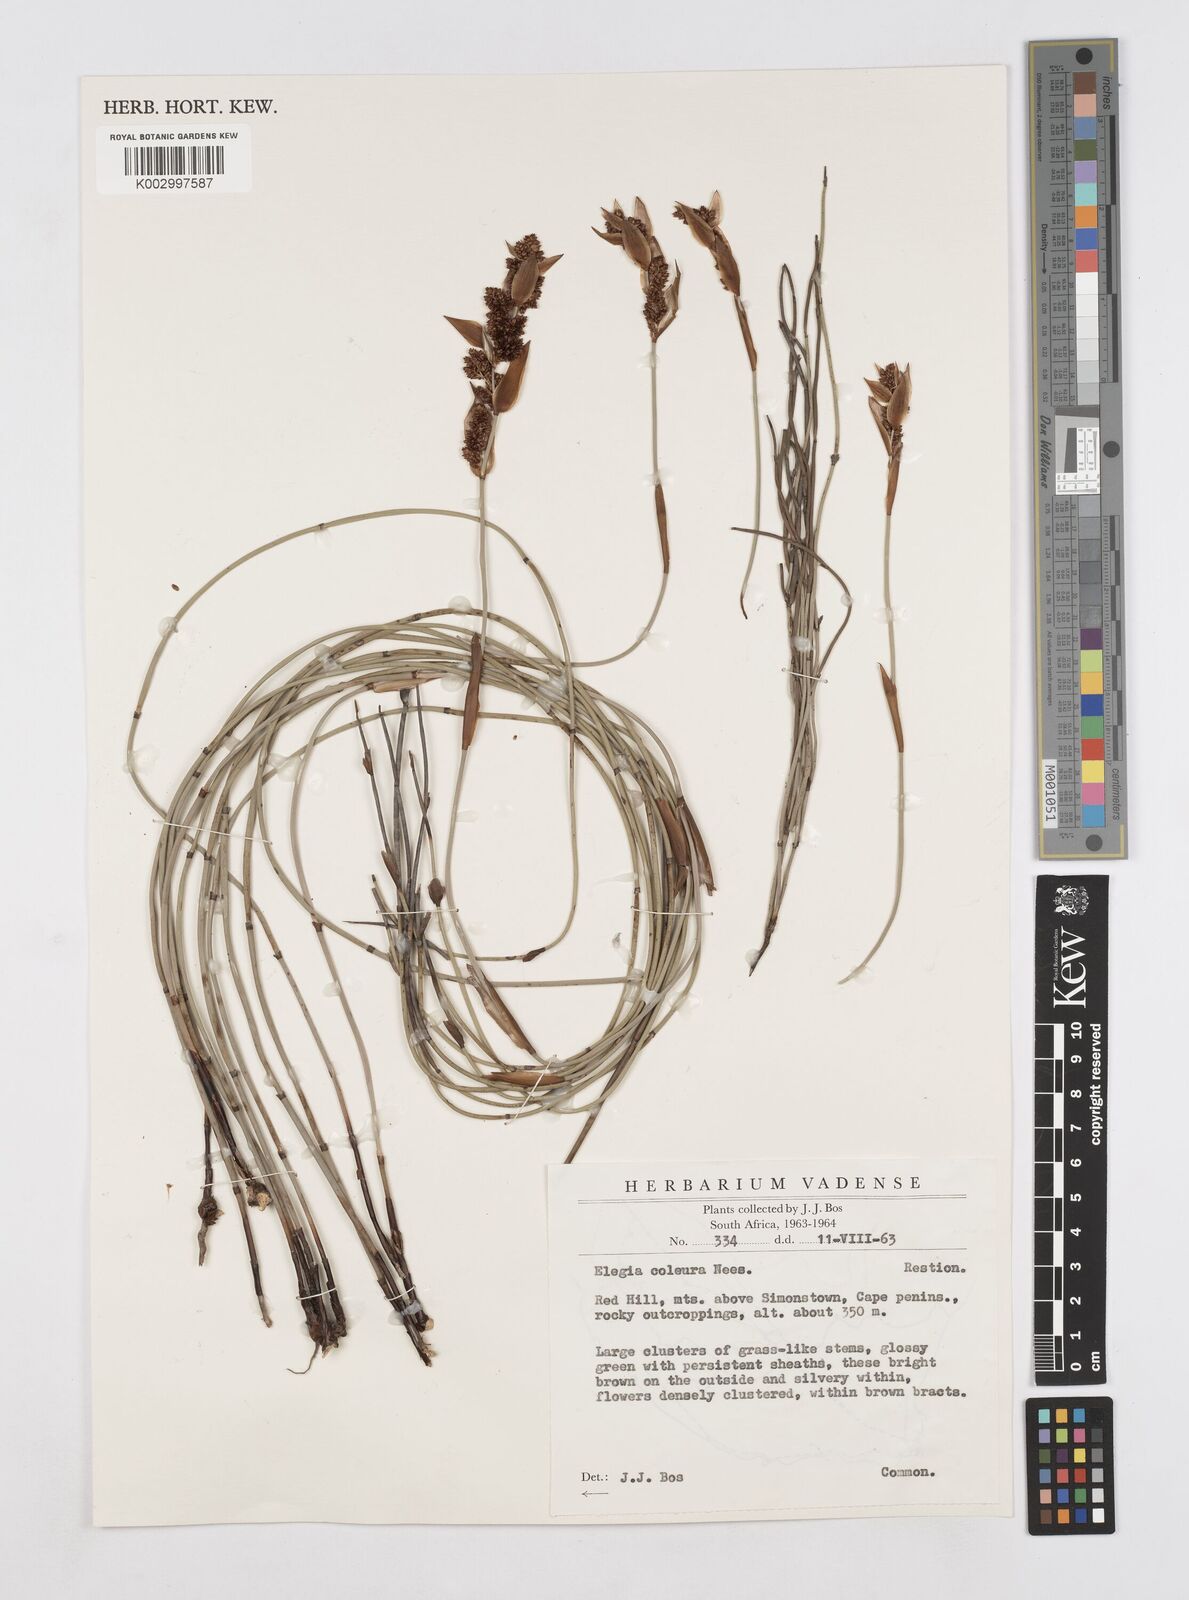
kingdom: Plantae
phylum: Tracheophyta
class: Liliopsida
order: Poales
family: Restionaceae
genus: Elegia
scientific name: Elegia coleura
